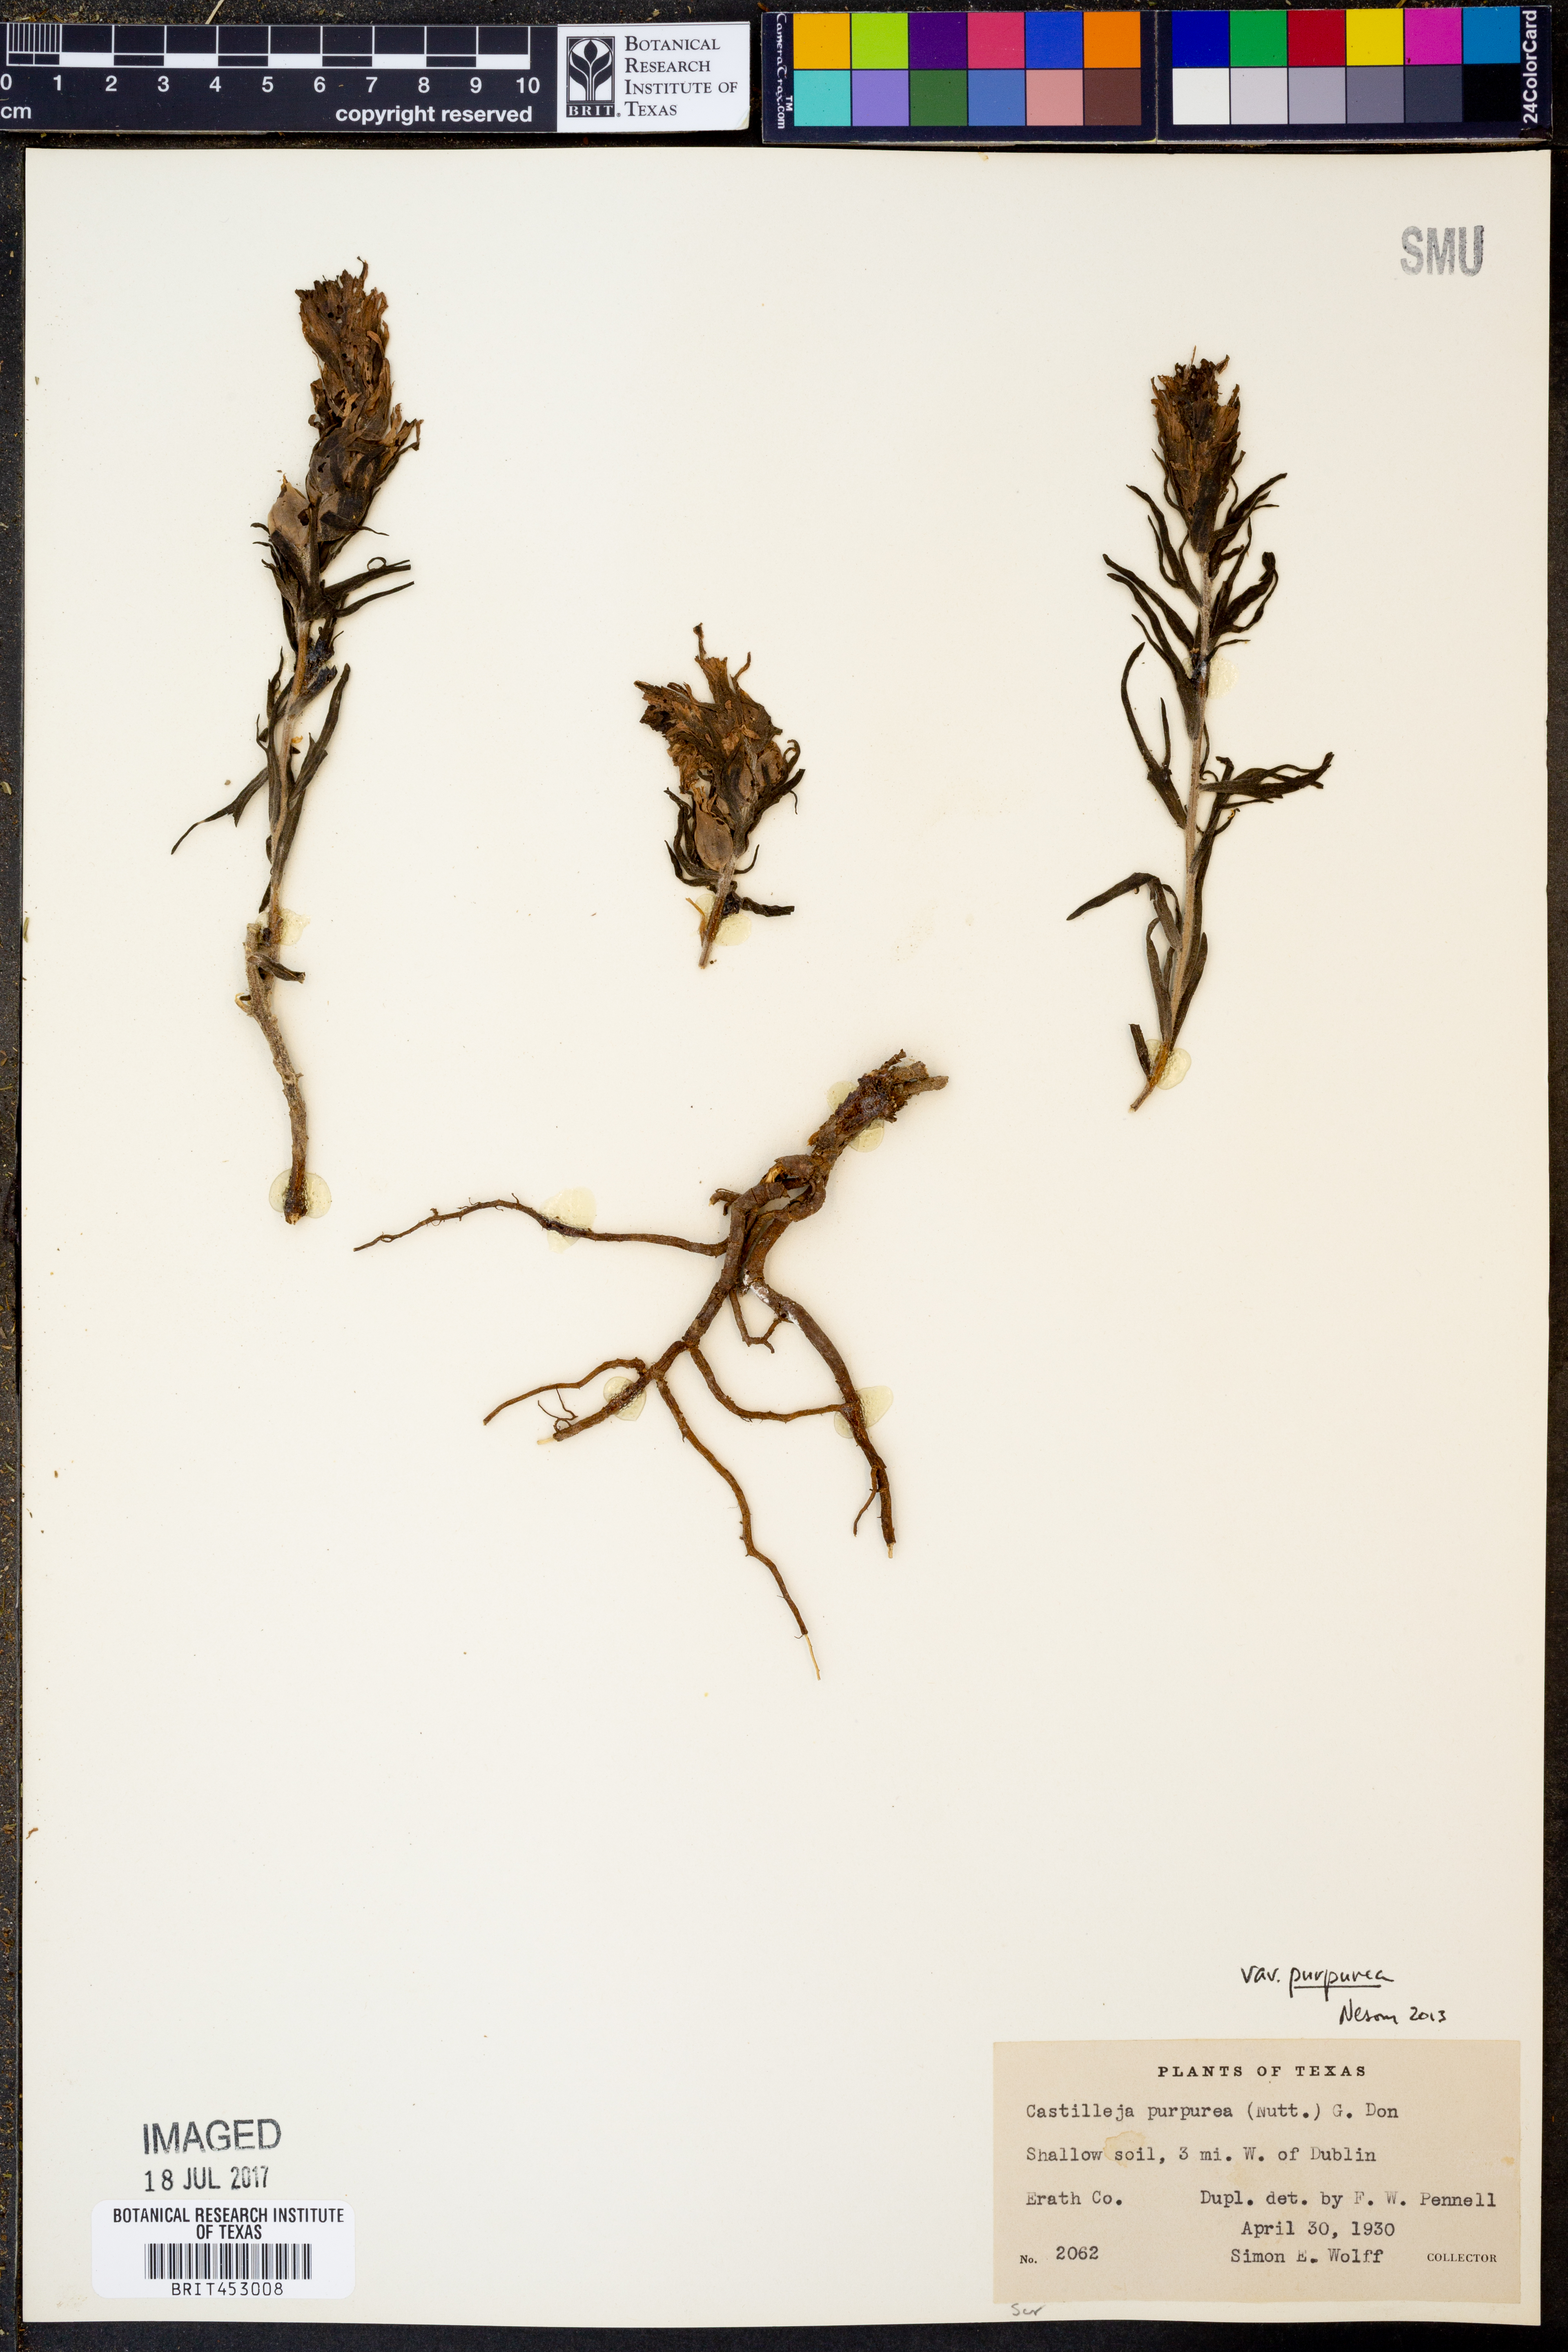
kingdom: Plantae
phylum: Tracheophyta
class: Magnoliopsida
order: Lamiales
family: Orobanchaceae
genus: Castilleja
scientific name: Castilleja purpurea
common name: Plains paintbrush
